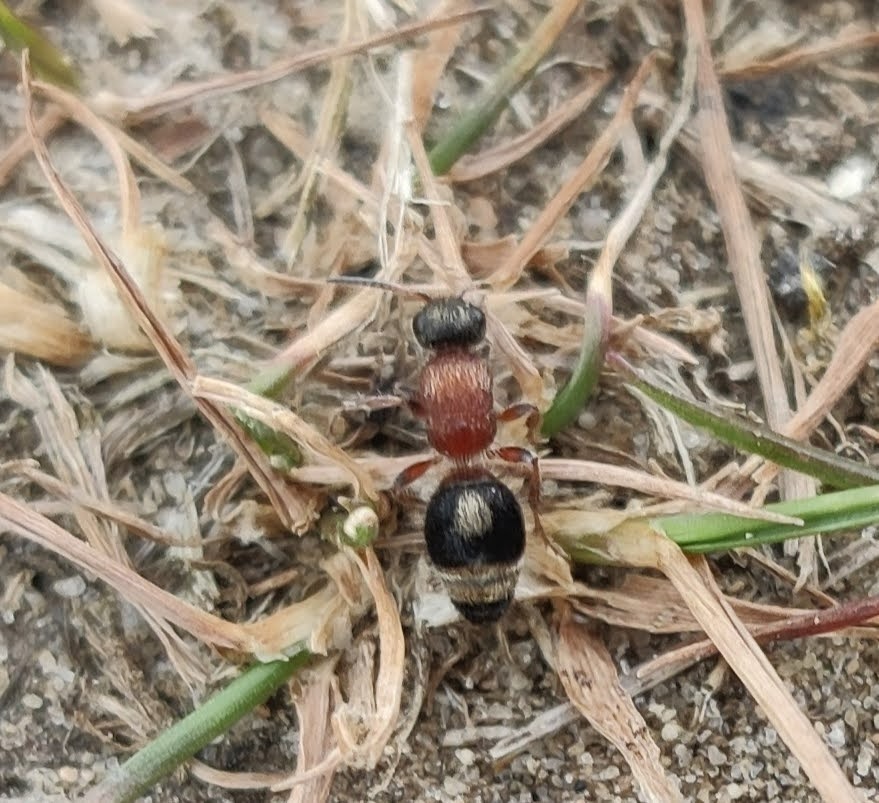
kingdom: Animalia
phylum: Arthropoda
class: Insecta
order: Hymenoptera
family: Mutillidae
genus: Smicromyrme
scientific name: Smicromyrme rufipes
